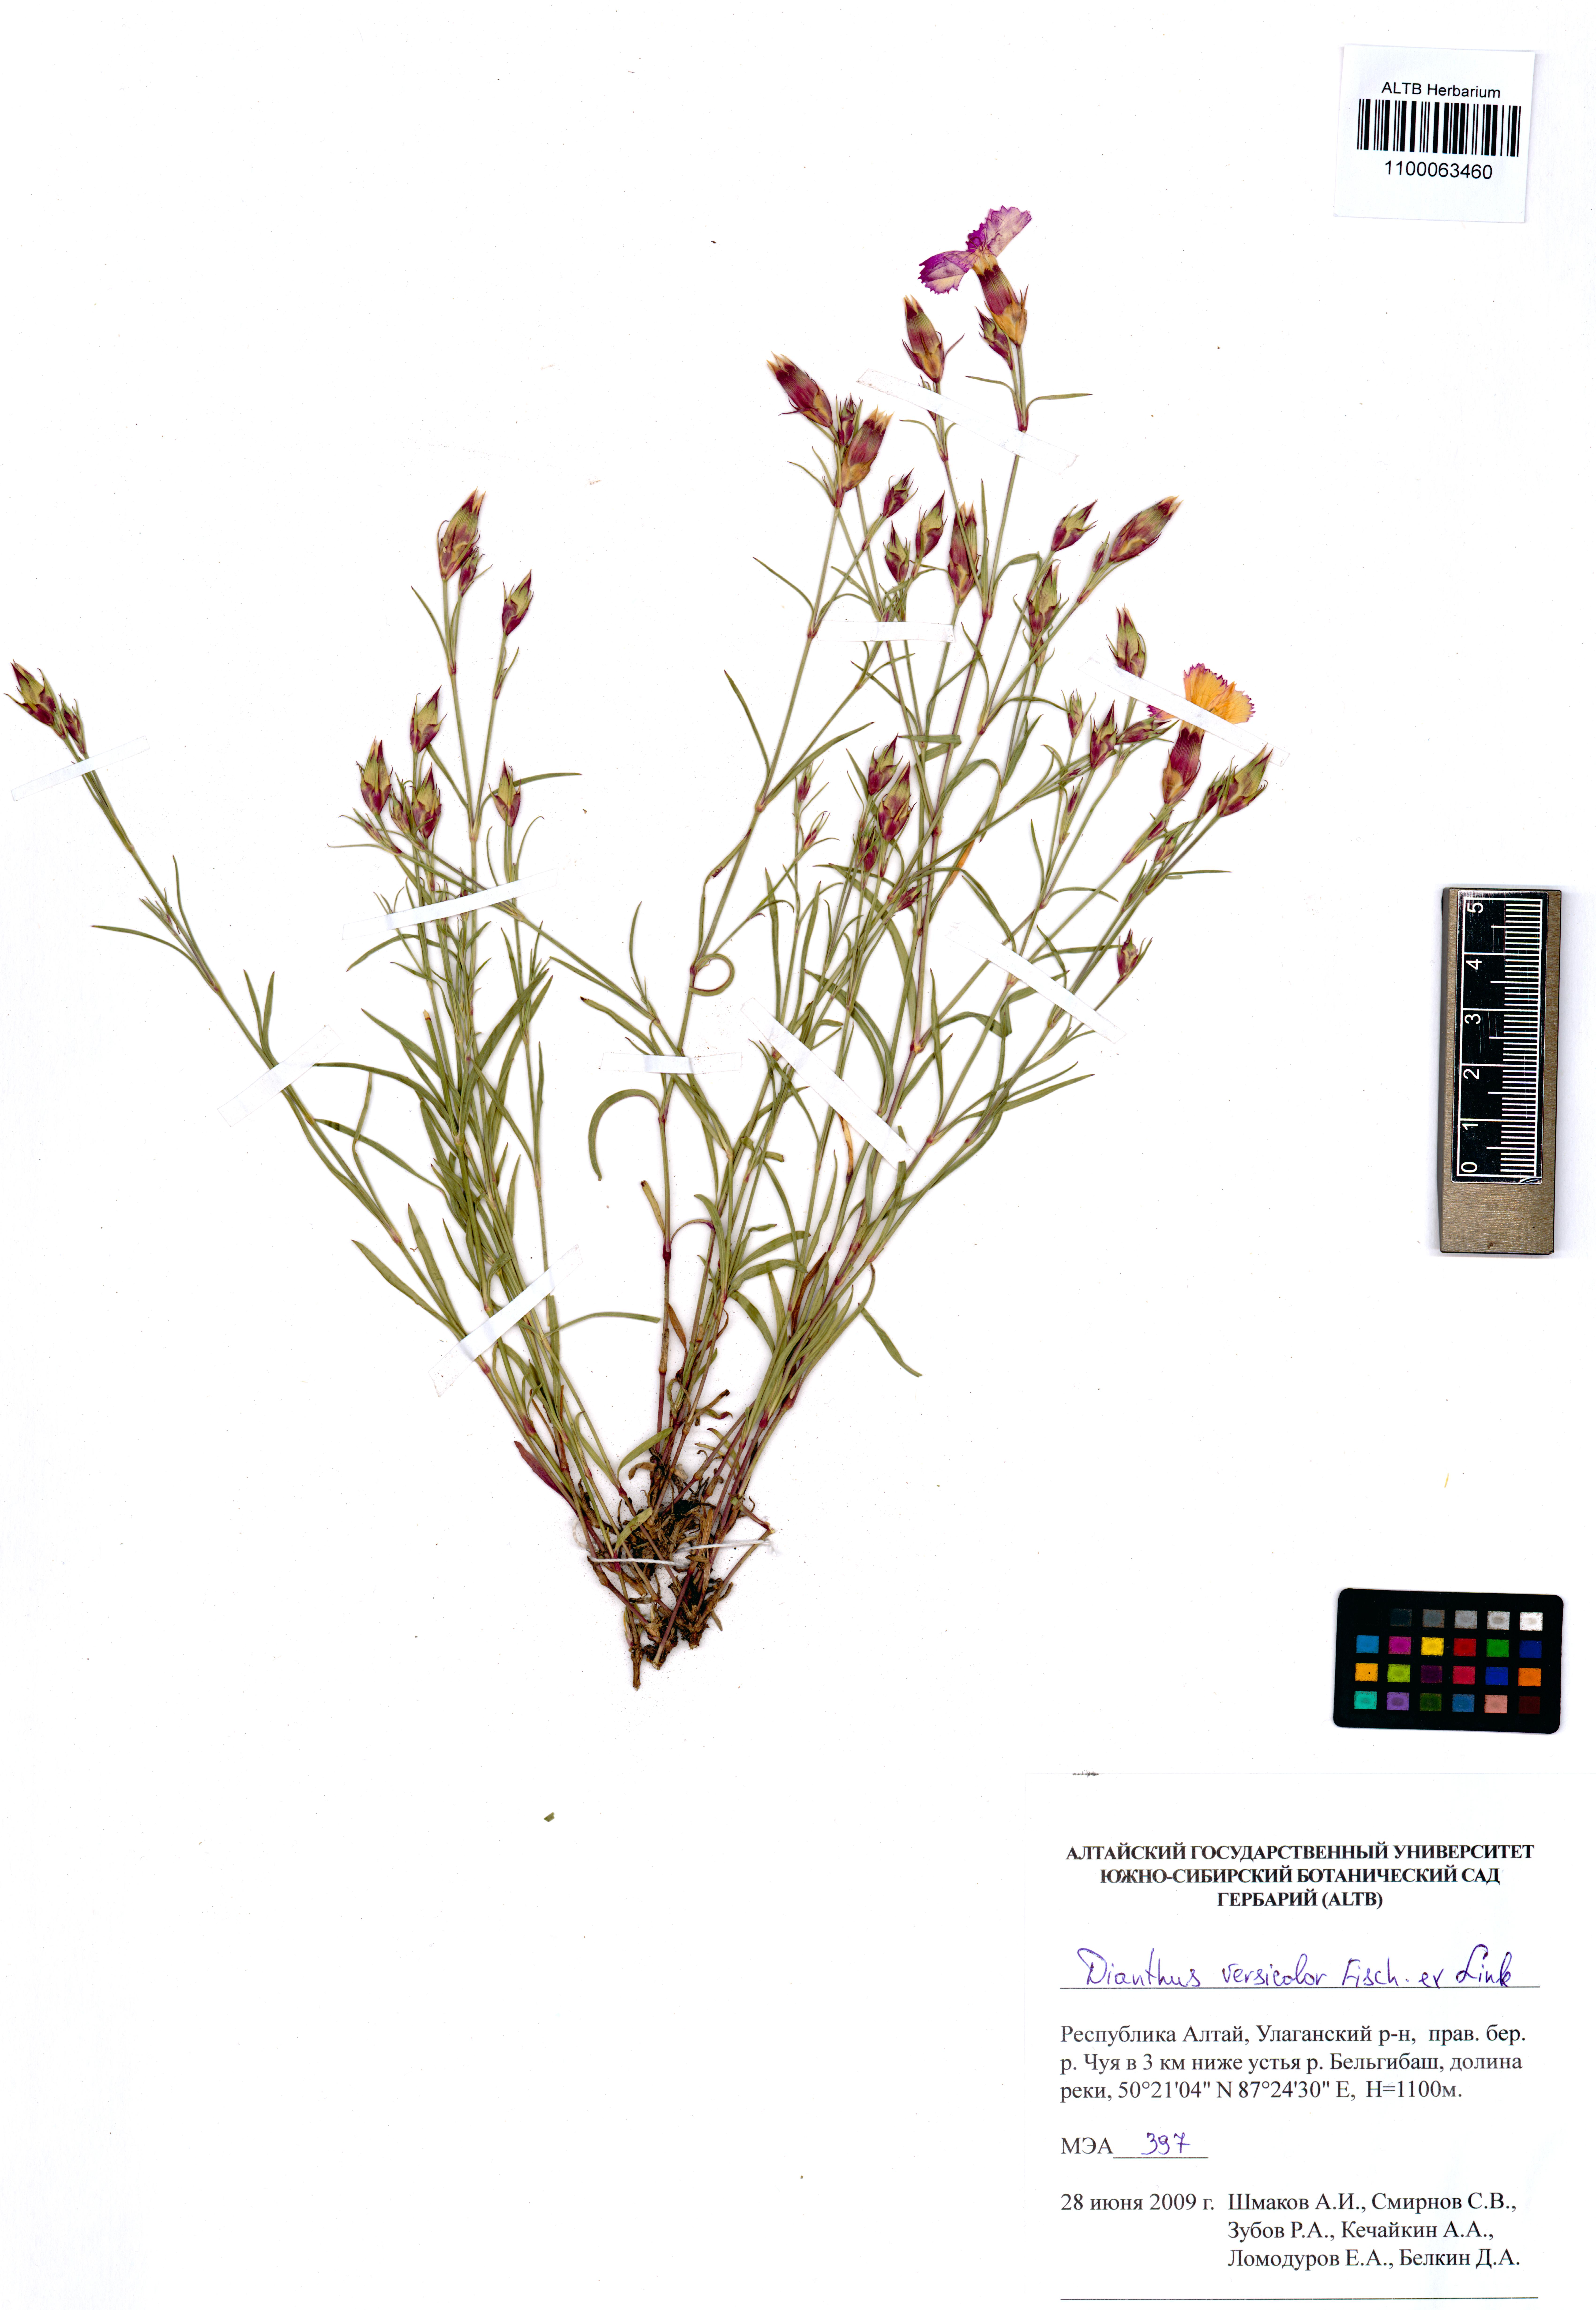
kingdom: Plantae
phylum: Tracheophyta
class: Magnoliopsida
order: Caryophyllales
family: Caryophyllaceae
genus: Dianthus
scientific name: Dianthus chinensis
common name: Rainbow pink
